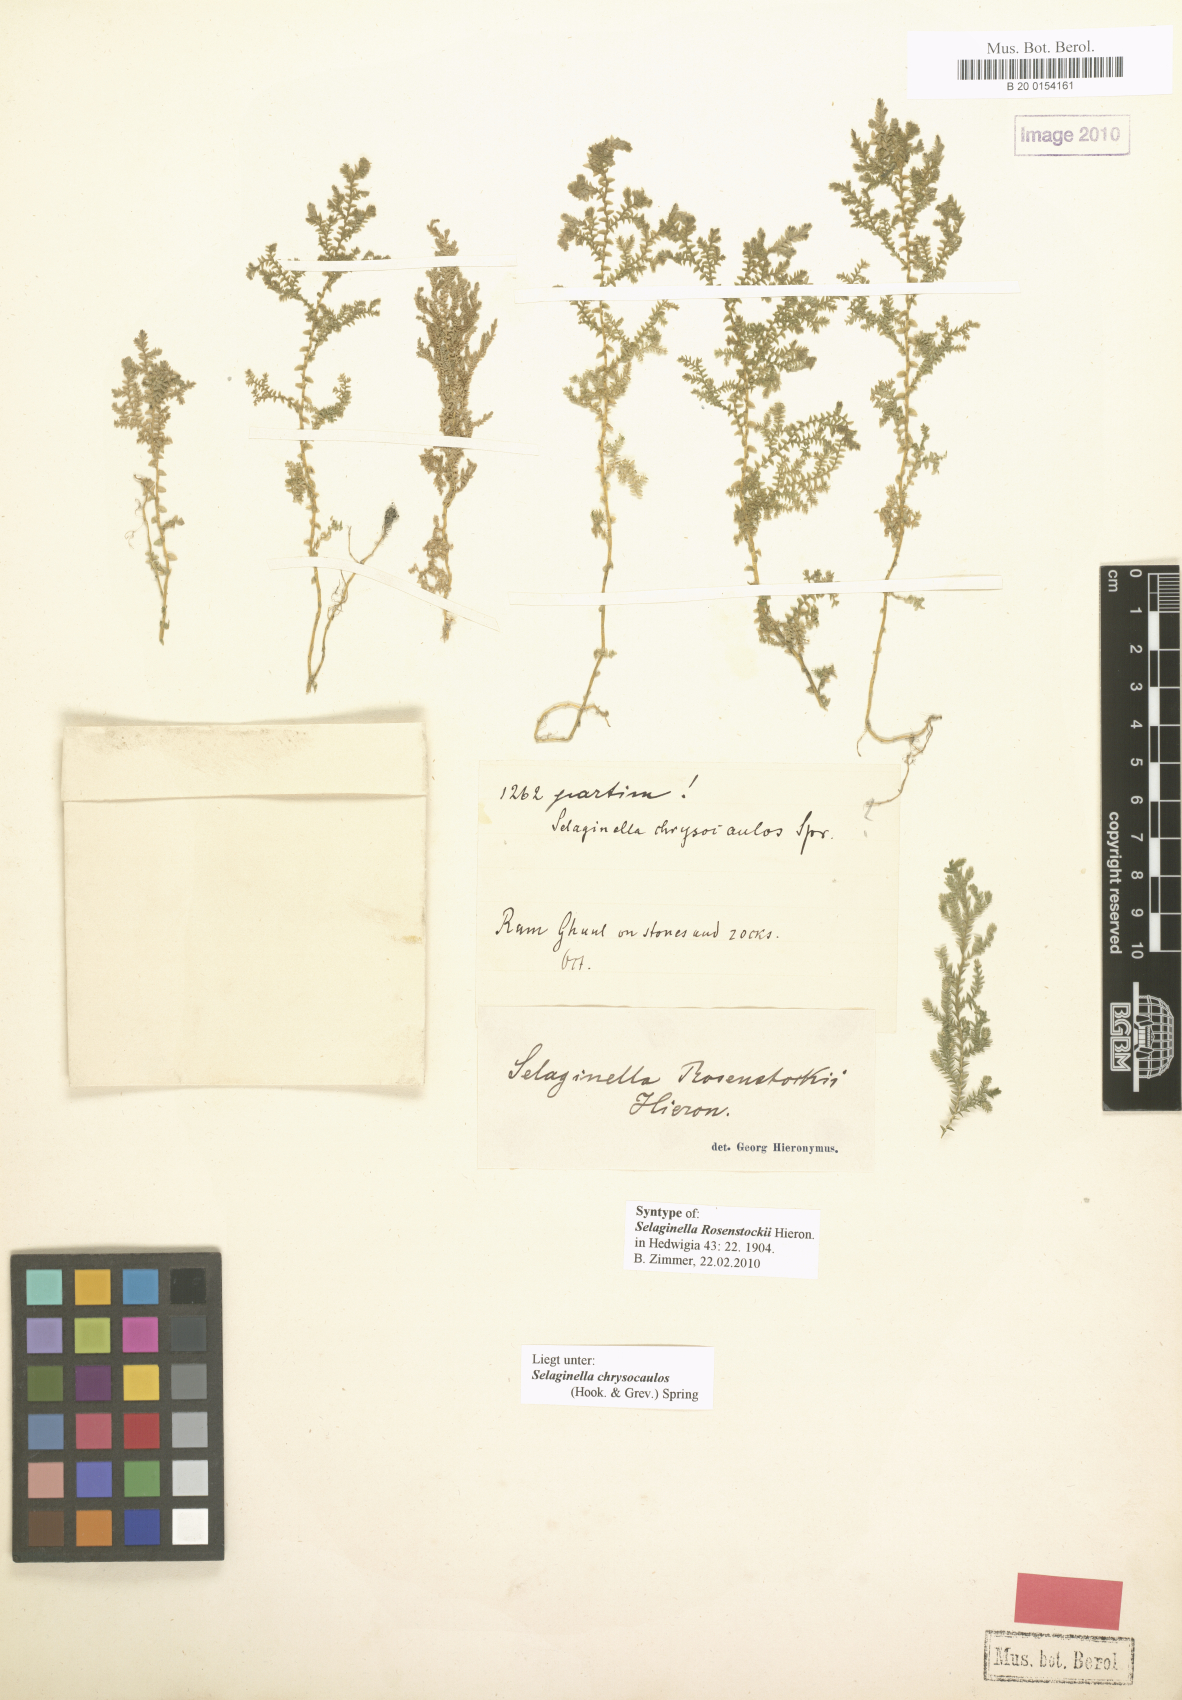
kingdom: Plantae
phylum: Tracheophyta
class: Lycopodiopsida
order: Selaginellales
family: Selaginellaceae
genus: Selaginella
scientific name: Selaginella chrysocaulos
